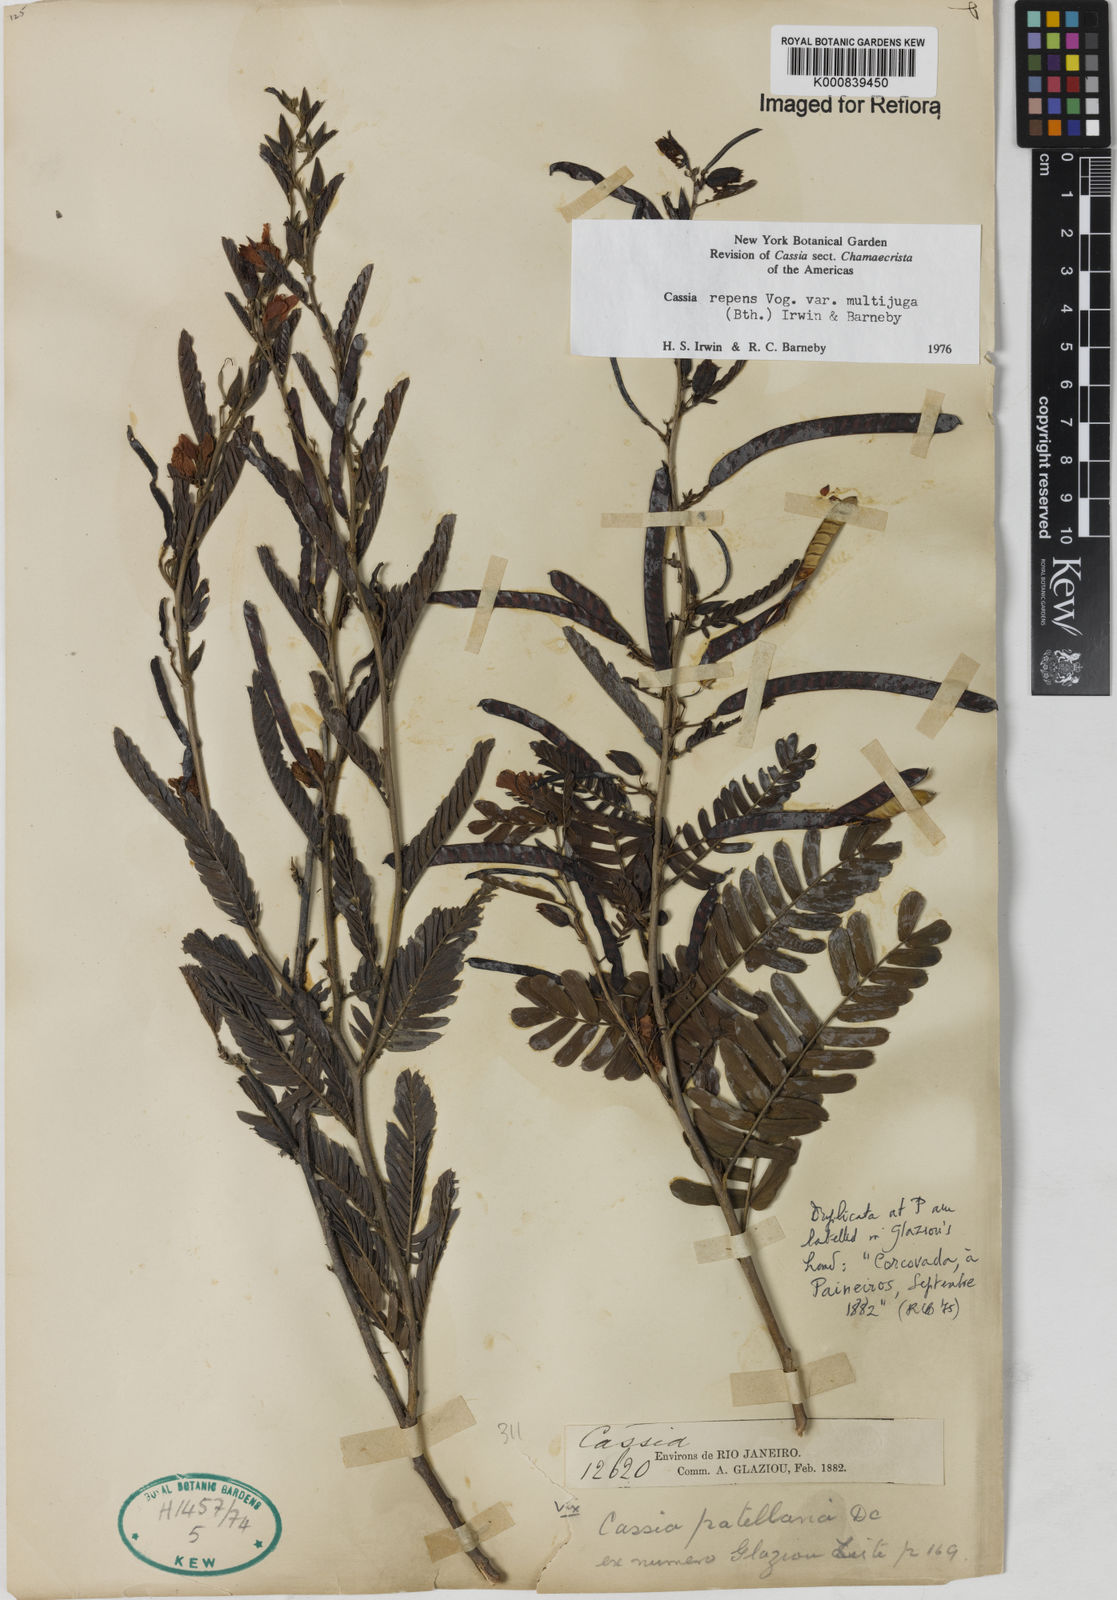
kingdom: Plantae
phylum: Tracheophyta
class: Magnoliopsida
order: Fabales
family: Fabaceae
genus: Chamaecrista
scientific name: Chamaecrista repens
